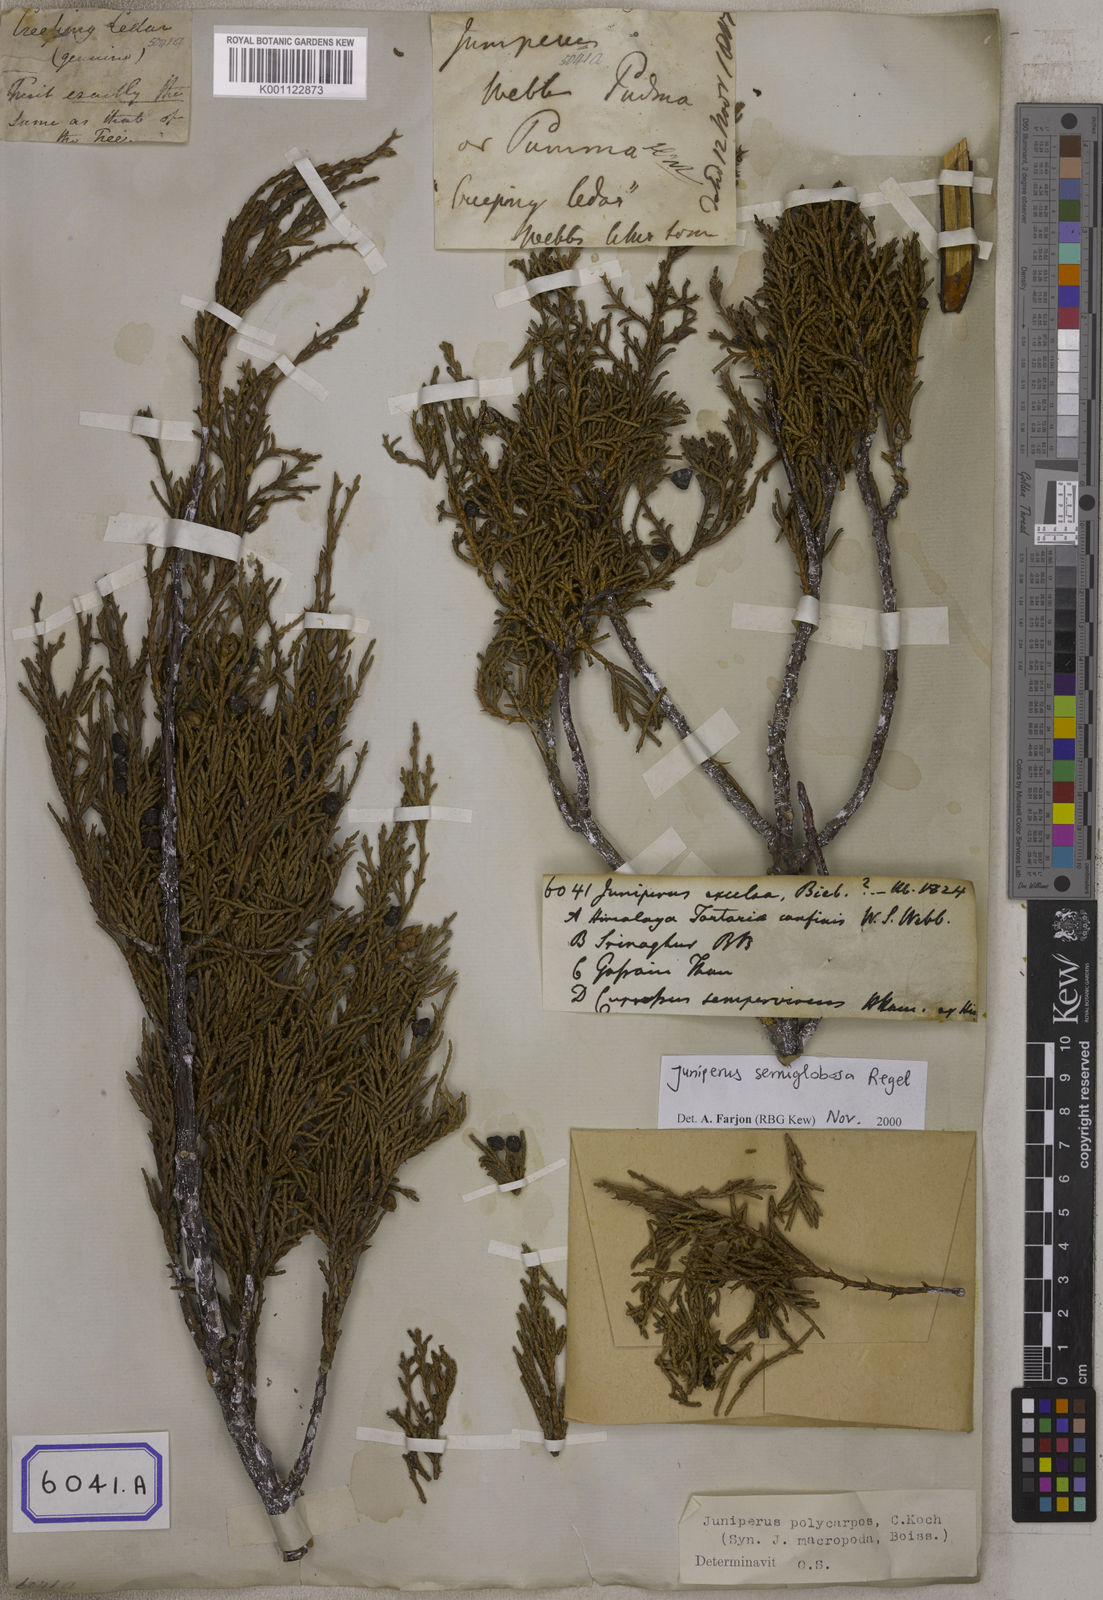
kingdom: Plantae
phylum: Tracheophyta
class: Pinopsida
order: Pinales
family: Cupressaceae
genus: Juniperus
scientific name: Juniperus semiglobosa
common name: Pencil cedar
